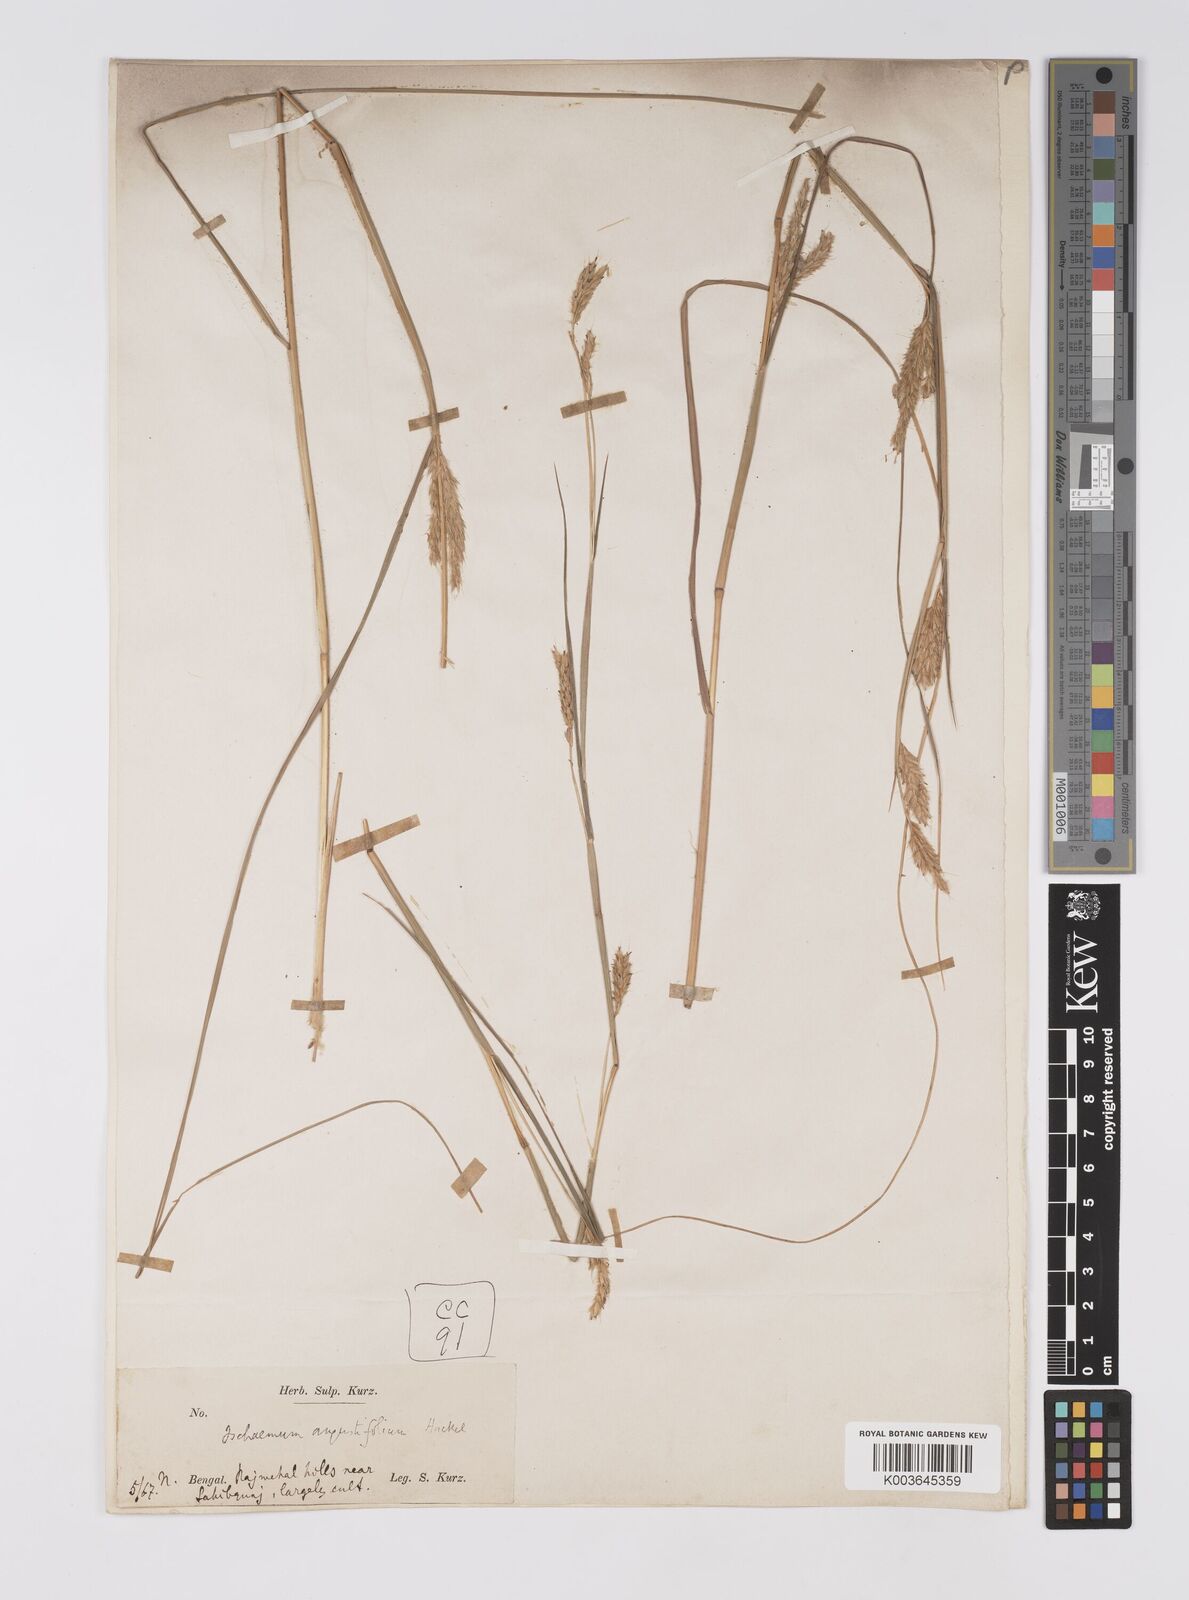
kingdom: Plantae
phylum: Tracheophyta
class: Liliopsida
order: Poales
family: Poaceae
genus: Eulaliopsis
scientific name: Eulaliopsis binata
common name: Baib grass
